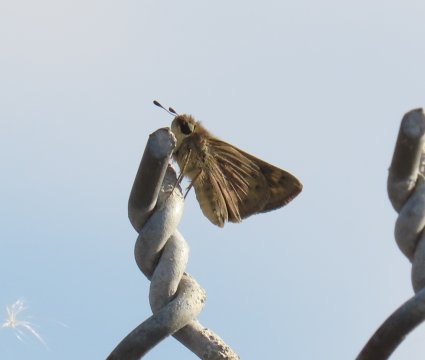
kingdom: Animalia
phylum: Arthropoda
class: Insecta
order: Lepidoptera
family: Hesperiidae
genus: Hylephila
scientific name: Hylephila phyleus
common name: Fiery Skipper
